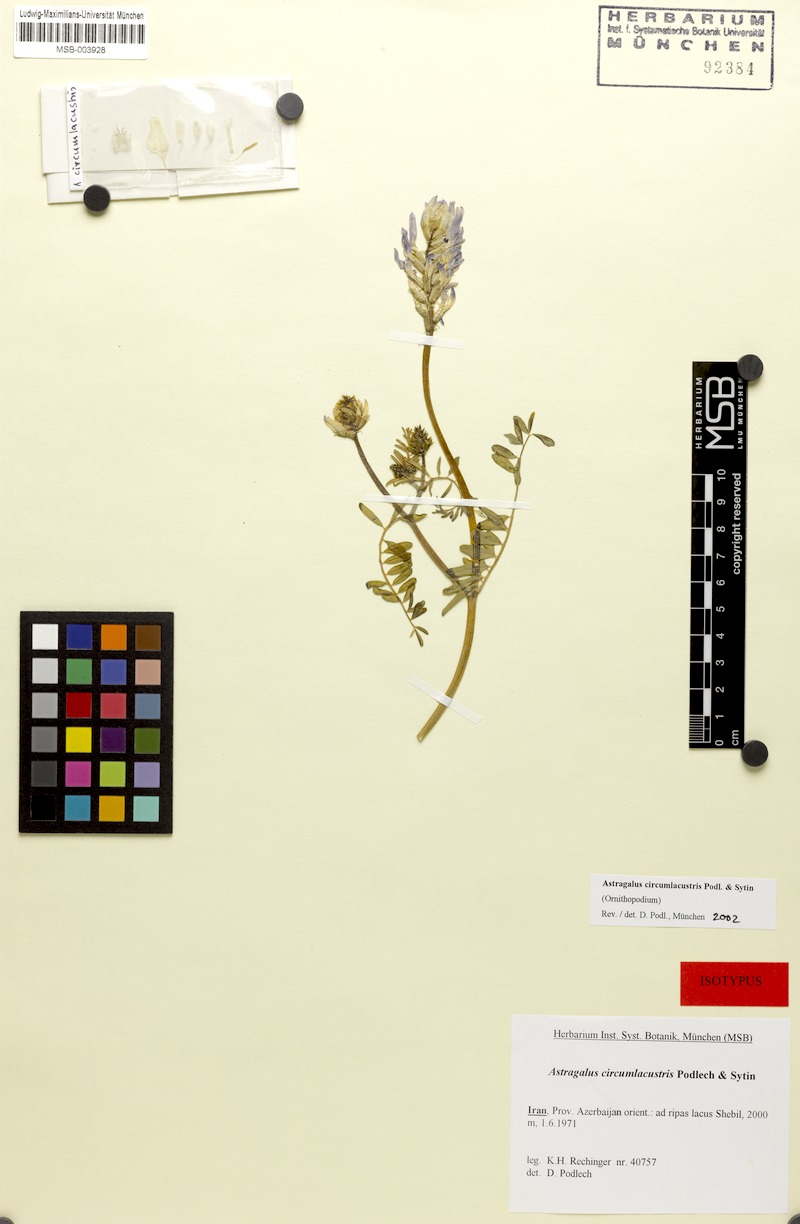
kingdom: Plantae
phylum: Tracheophyta
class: Magnoliopsida
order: Fabales
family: Fabaceae
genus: Astragalus
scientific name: Astragalus circumlacustris
